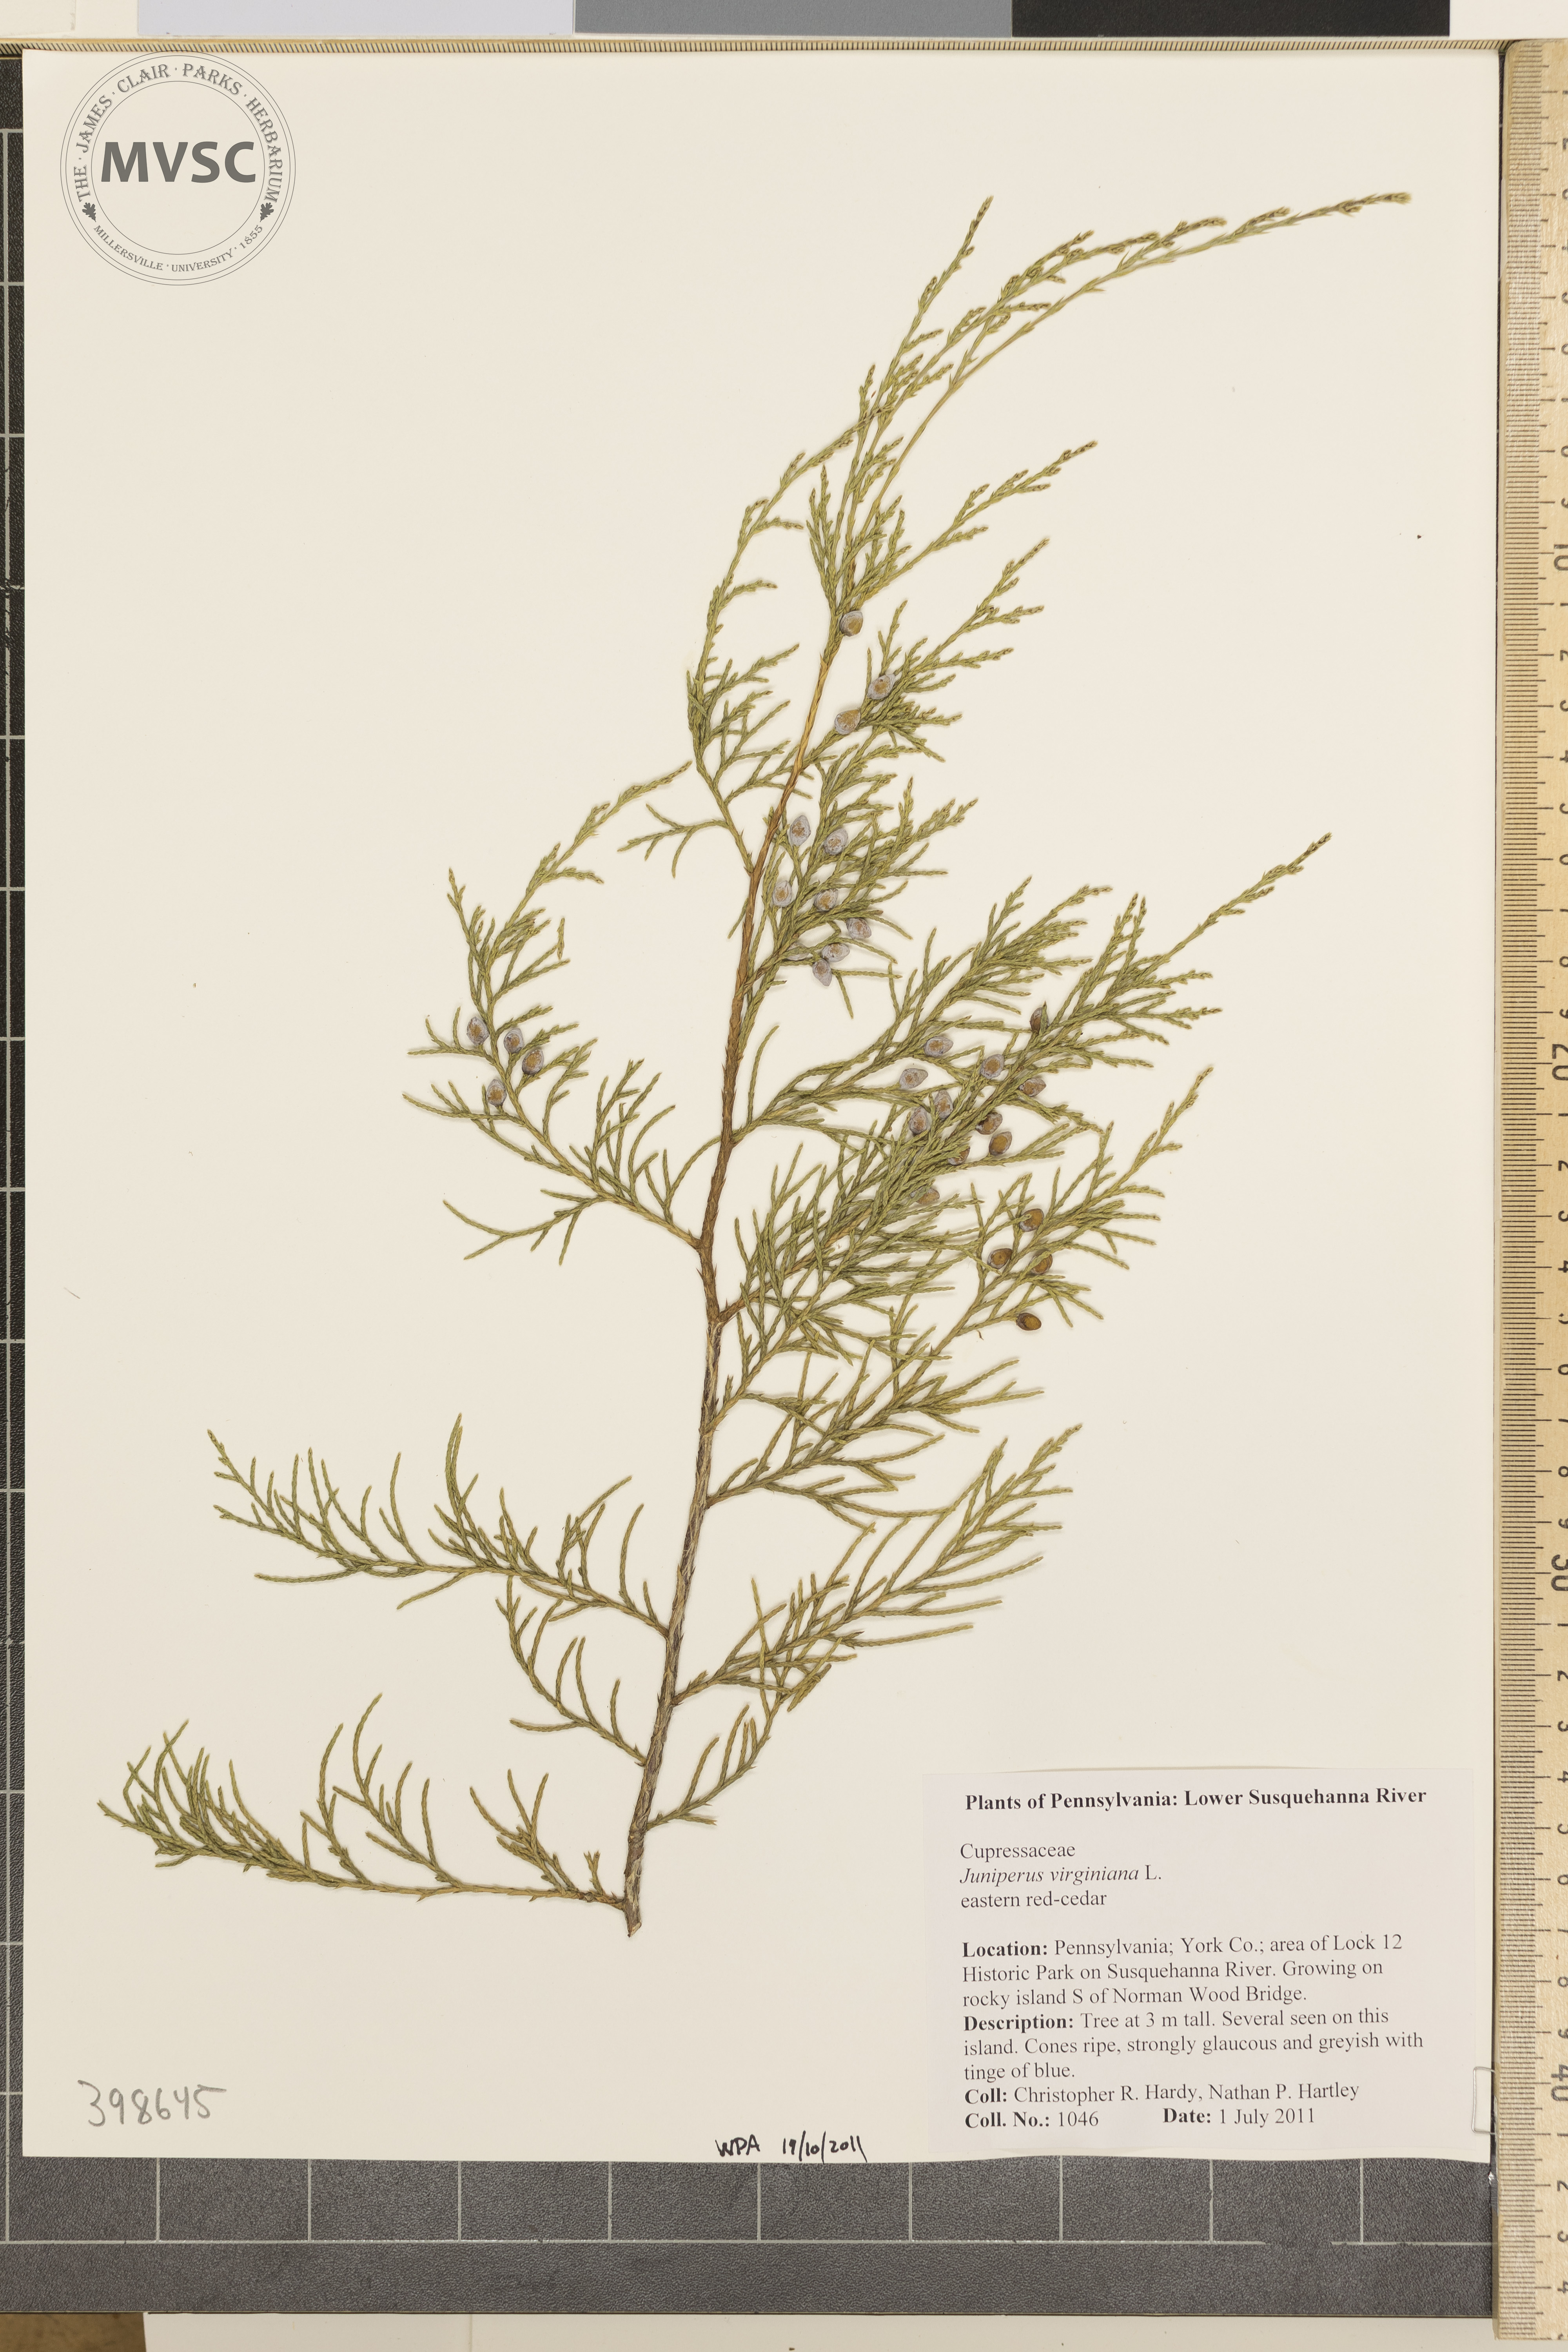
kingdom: Plantae
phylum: Tracheophyta
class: Pinopsida
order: Pinales
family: Cupressaceae
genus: Juniperus
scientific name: Juniperus virginiana
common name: Eastern red-cedar
